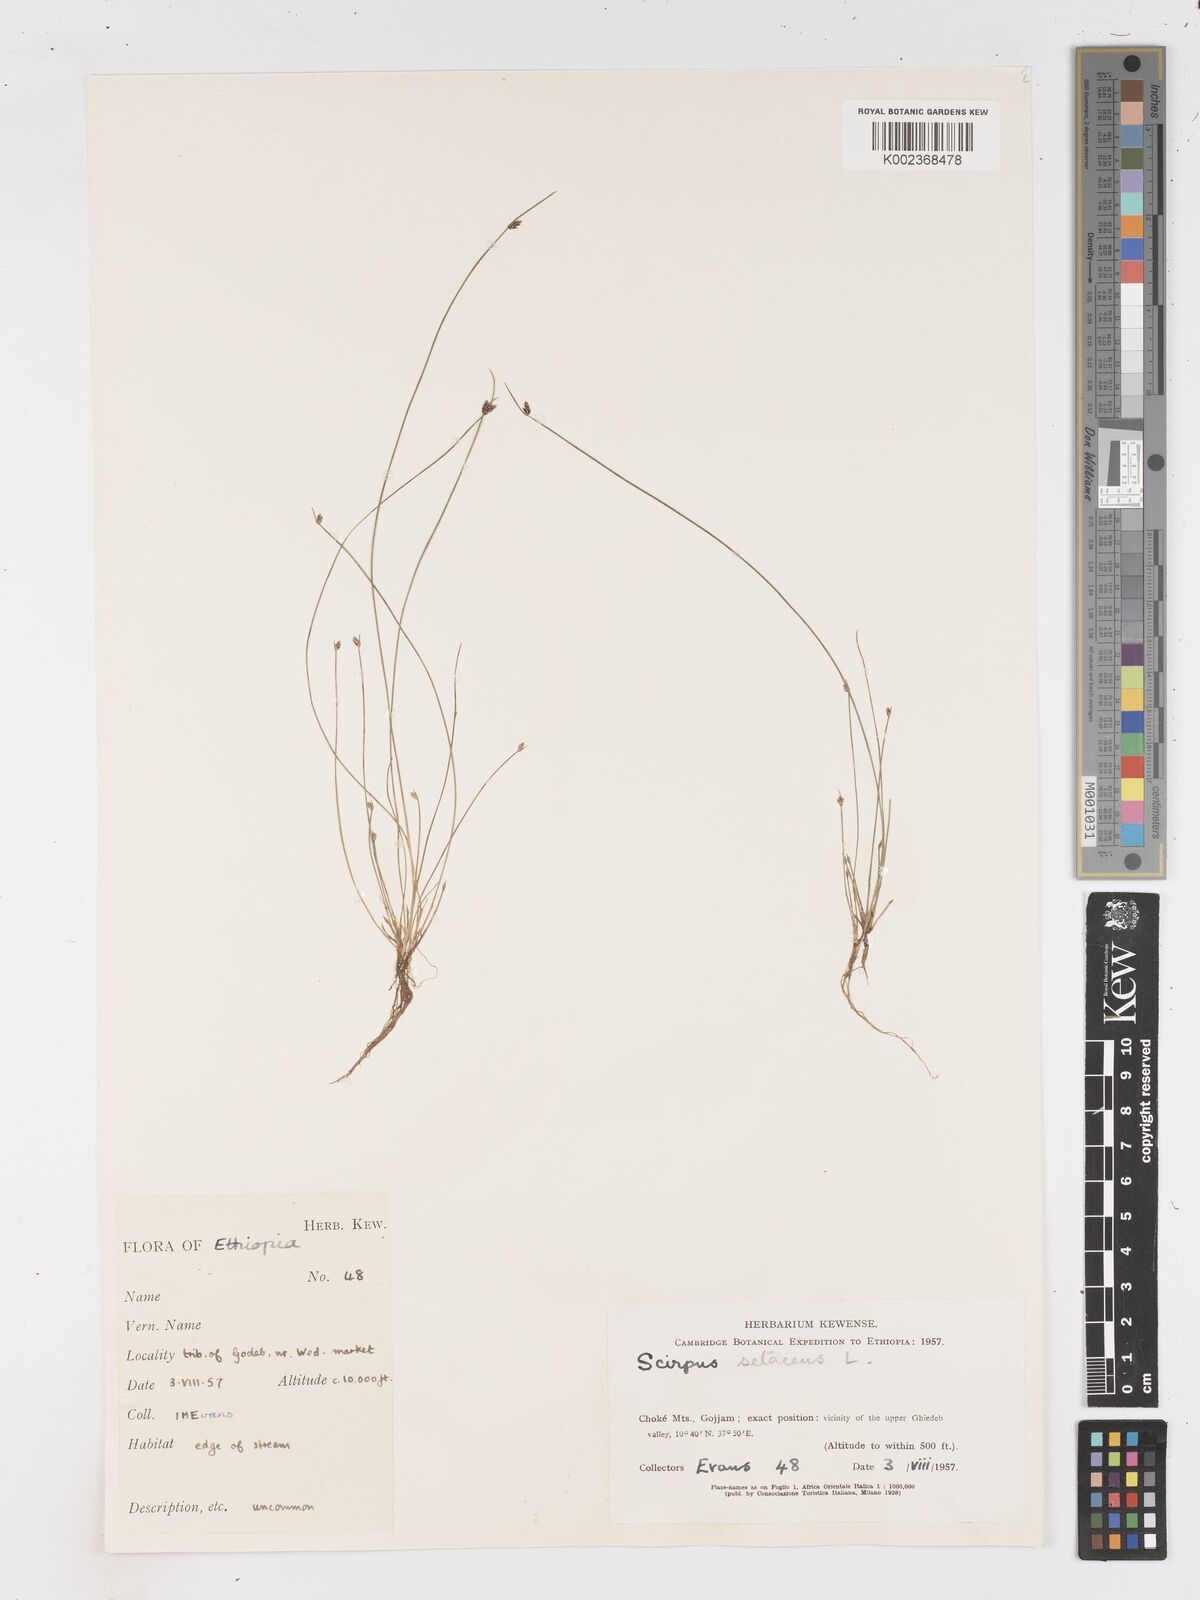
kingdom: Plantae
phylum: Tracheophyta
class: Liliopsida
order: Poales
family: Cyperaceae
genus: Isolepis
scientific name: Isolepis setacea
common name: Bristle club-rush
